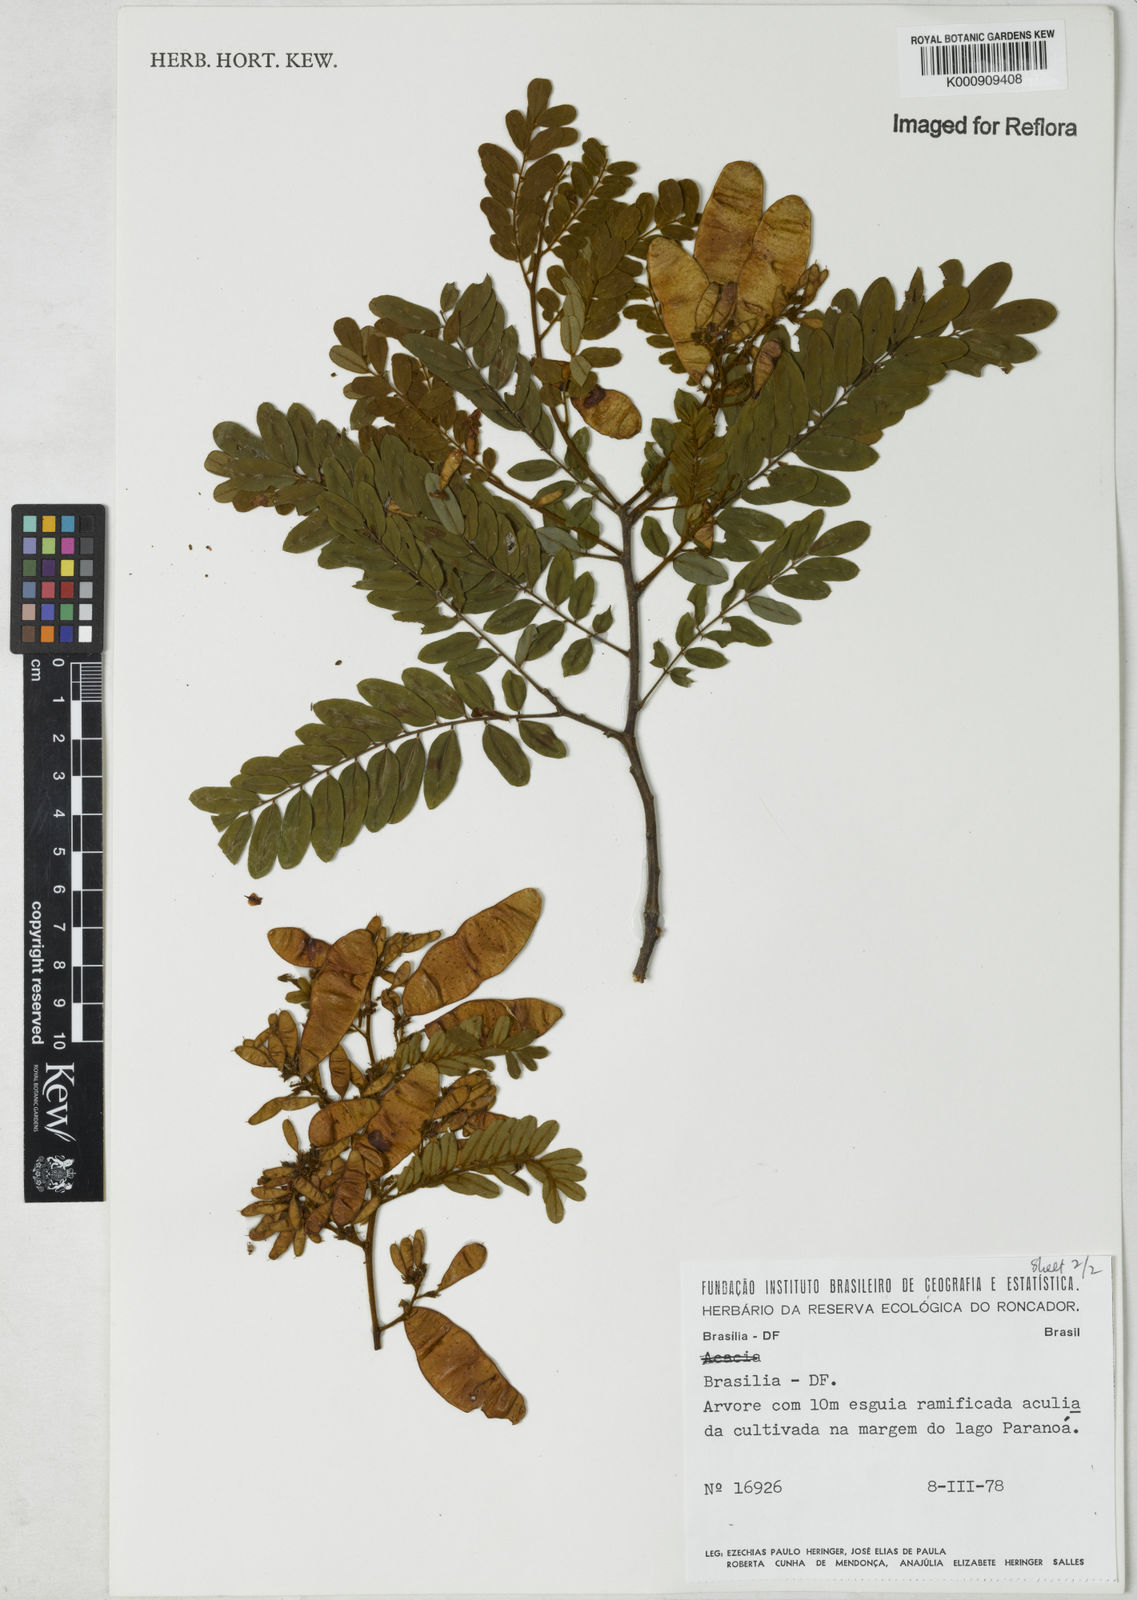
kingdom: Plantae
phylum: Tracheophyta
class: Magnoliopsida
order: Fabales
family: Fabaceae
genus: Dalbergia
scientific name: Dalbergia
